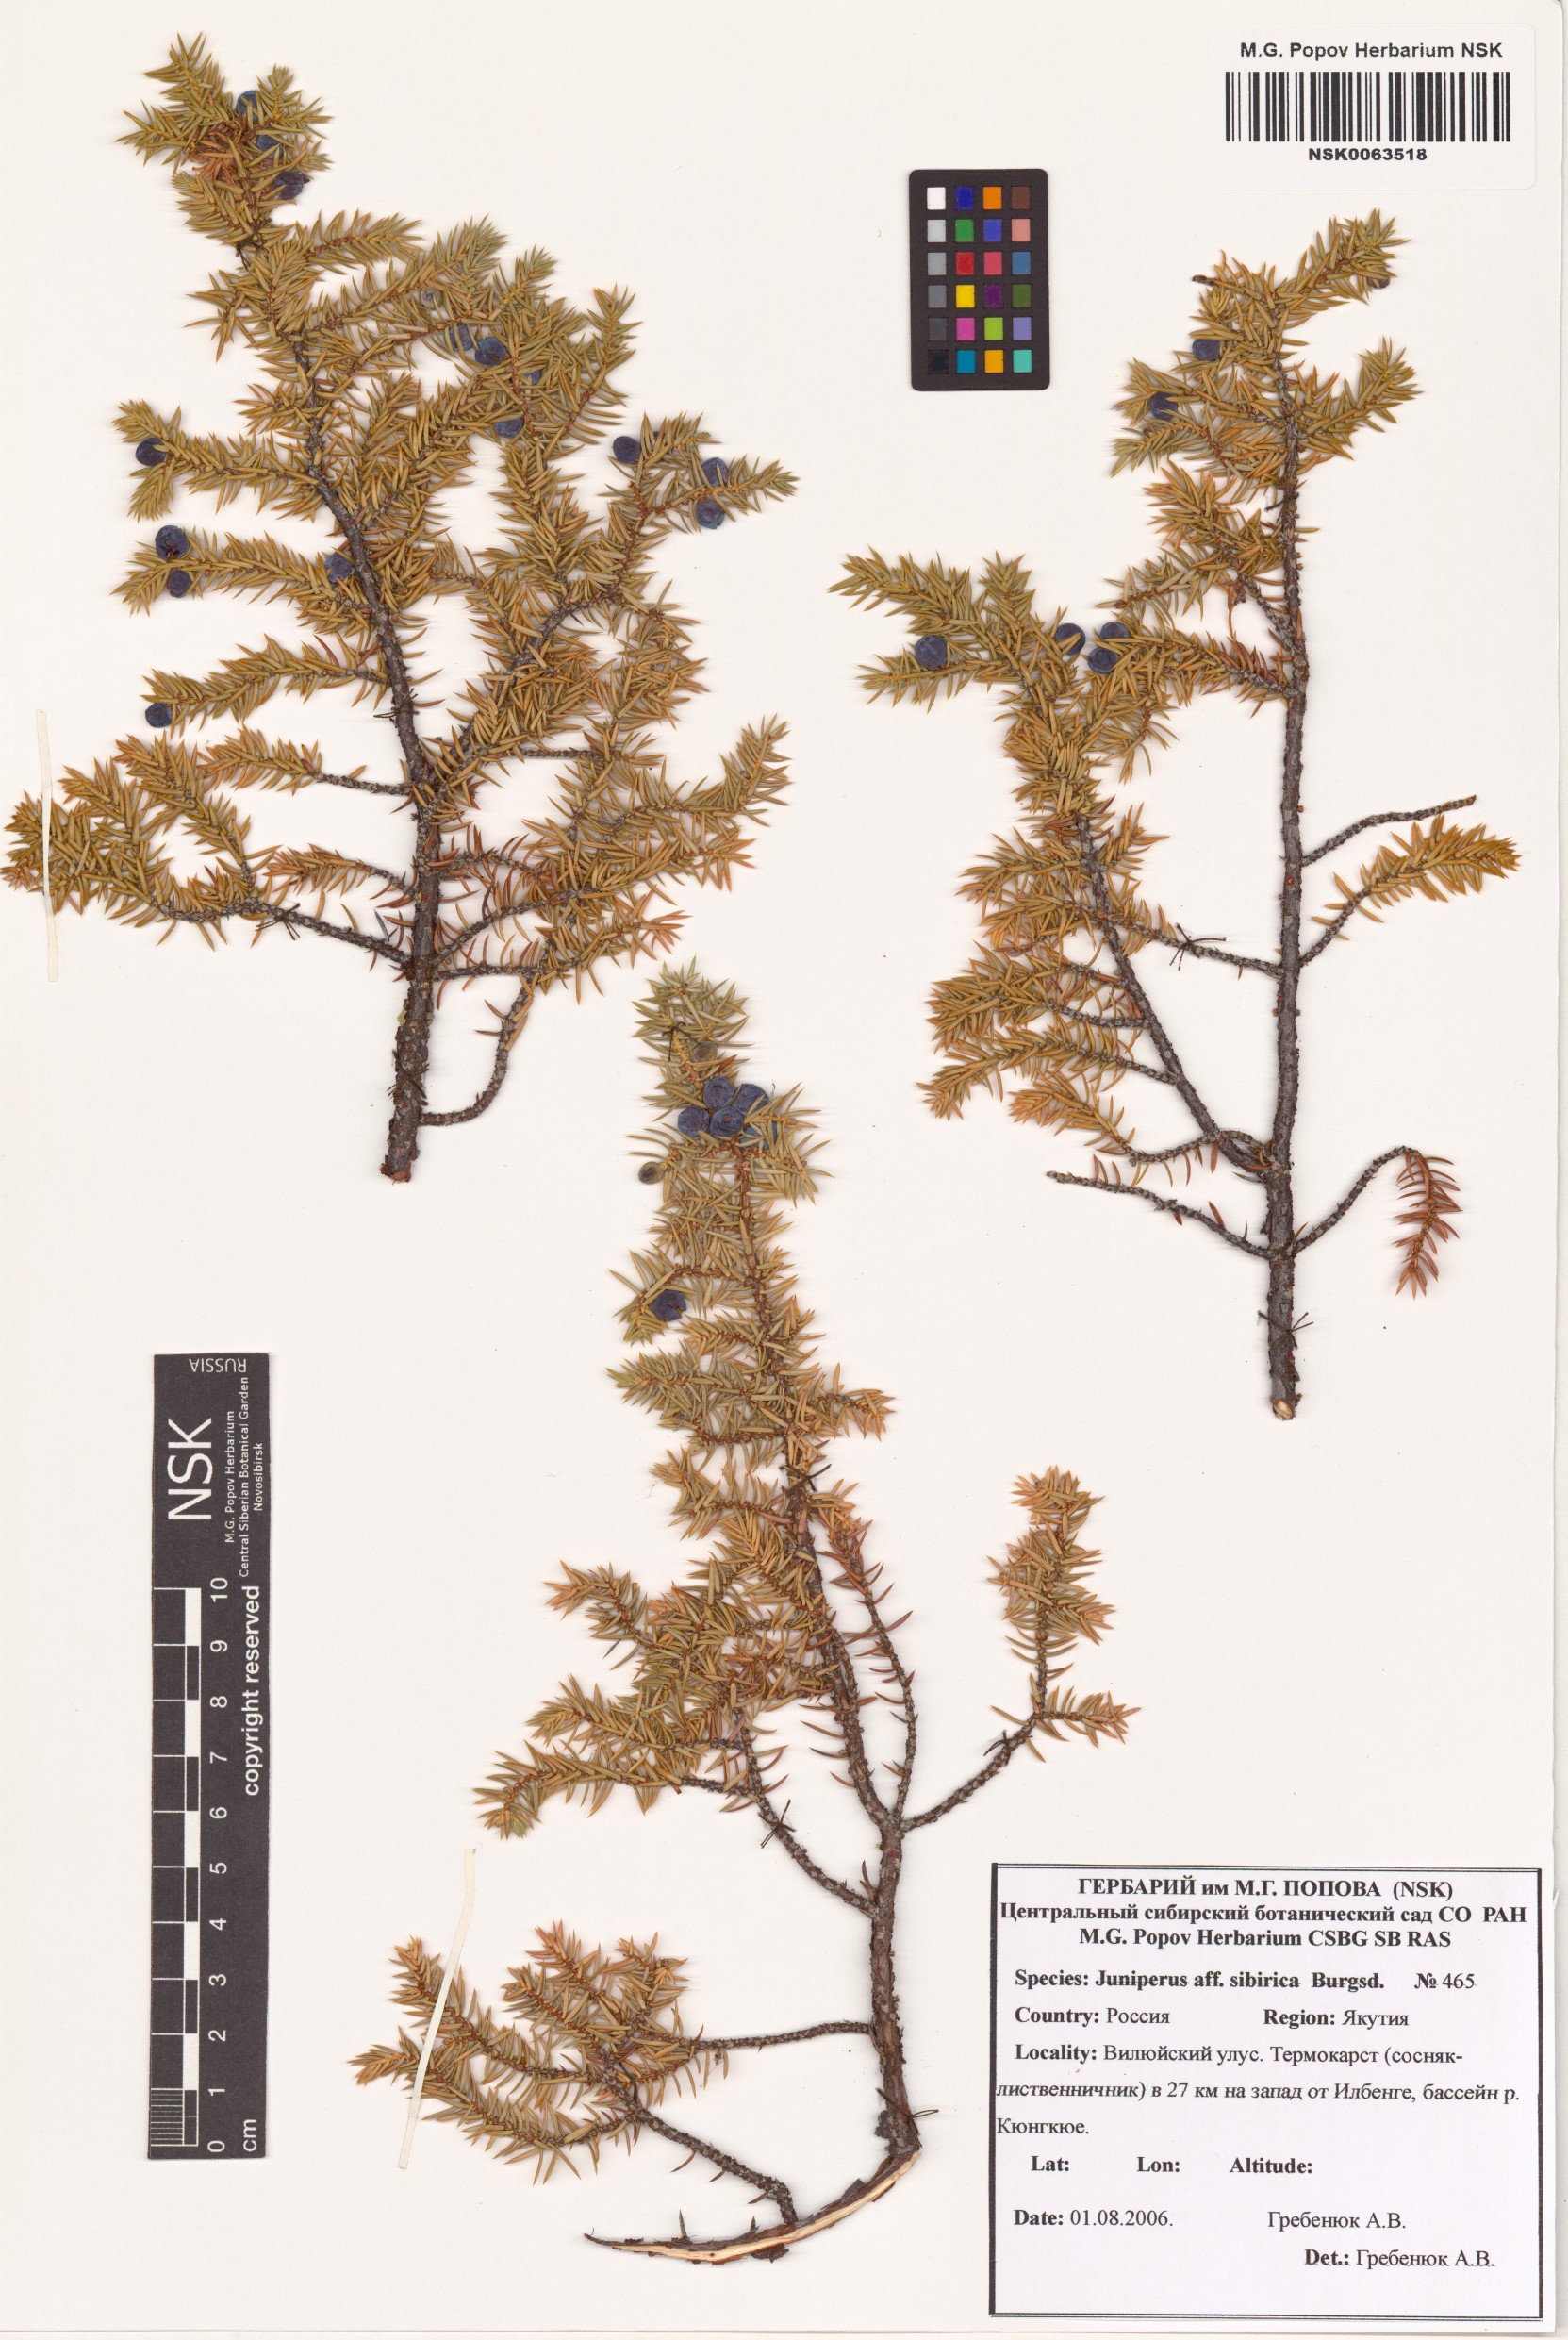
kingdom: Plantae
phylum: Tracheophyta
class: Pinopsida
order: Pinales
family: Cupressaceae
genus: Juniperus
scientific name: Juniperus communis
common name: Common juniper
